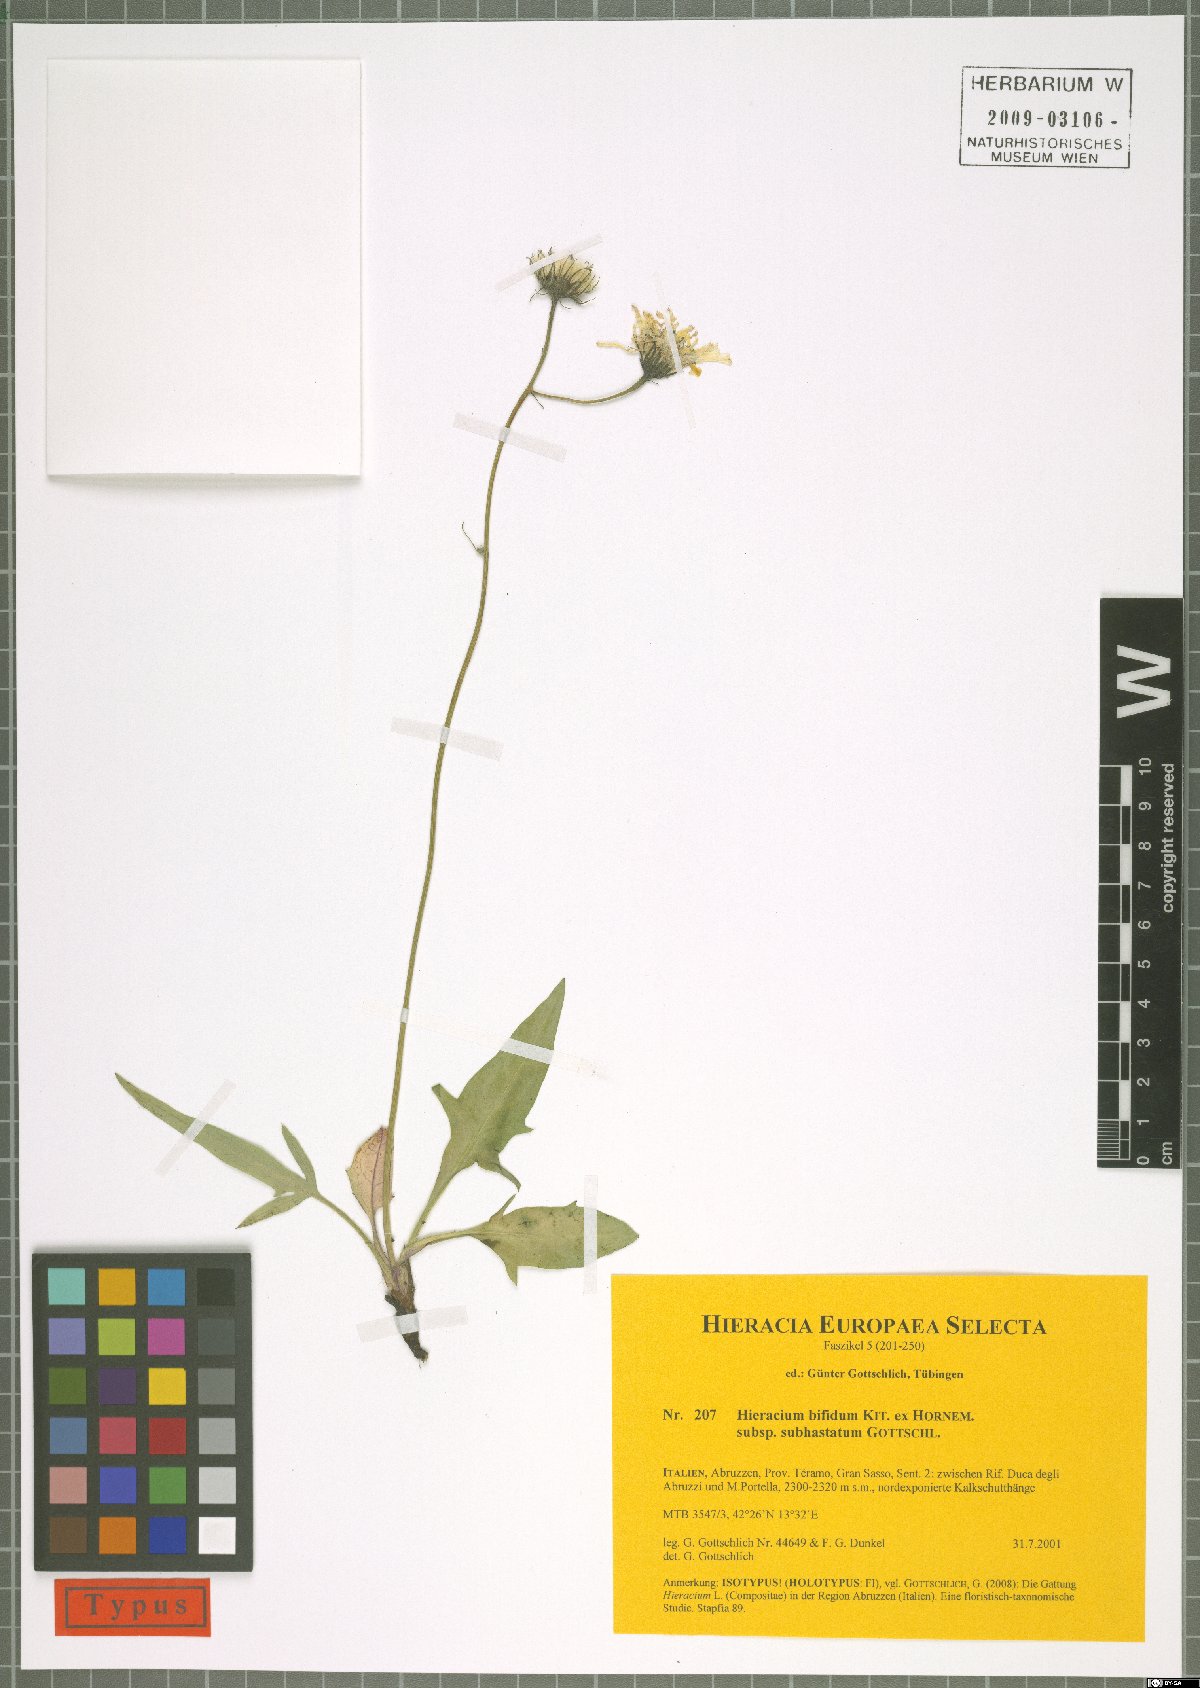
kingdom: Plantae
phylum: Tracheophyta
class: Magnoliopsida
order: Asterales
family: Asteraceae
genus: Hieracium
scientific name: Hieracium bifidum
